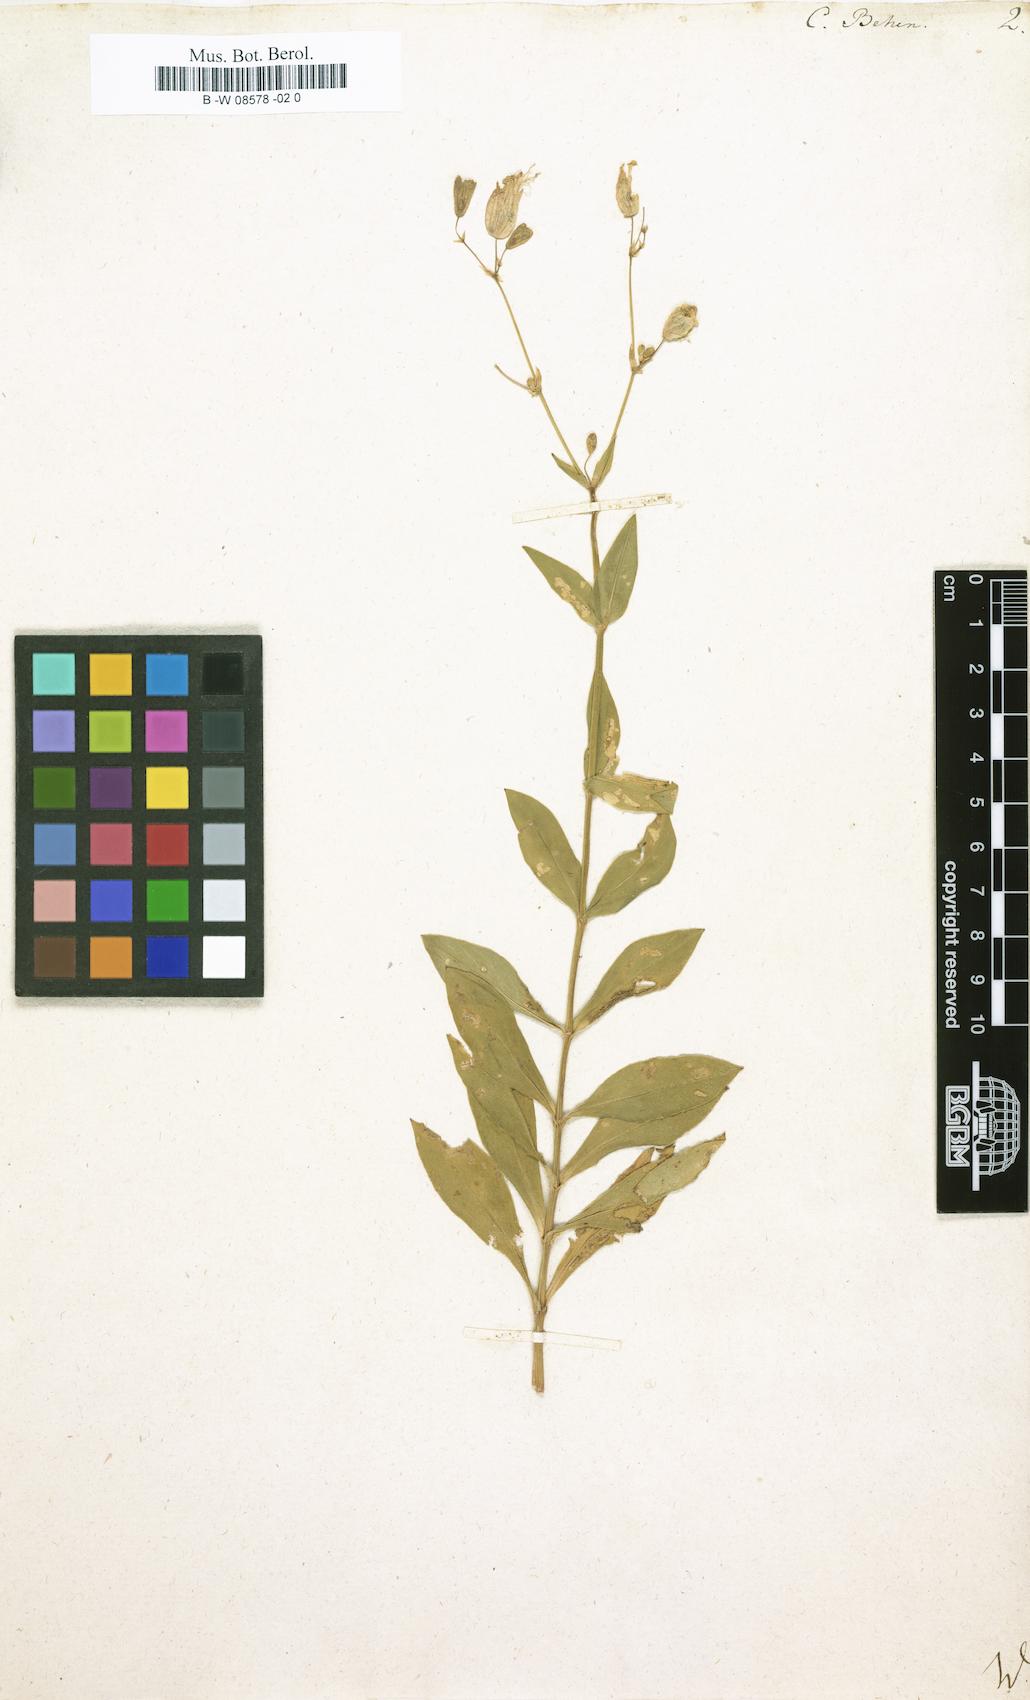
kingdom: Plantae
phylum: Tracheophyta
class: Magnoliopsida
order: Caryophyllales
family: Caryophyllaceae
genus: Silene
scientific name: Silene vulgaris
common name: Bladder campion
